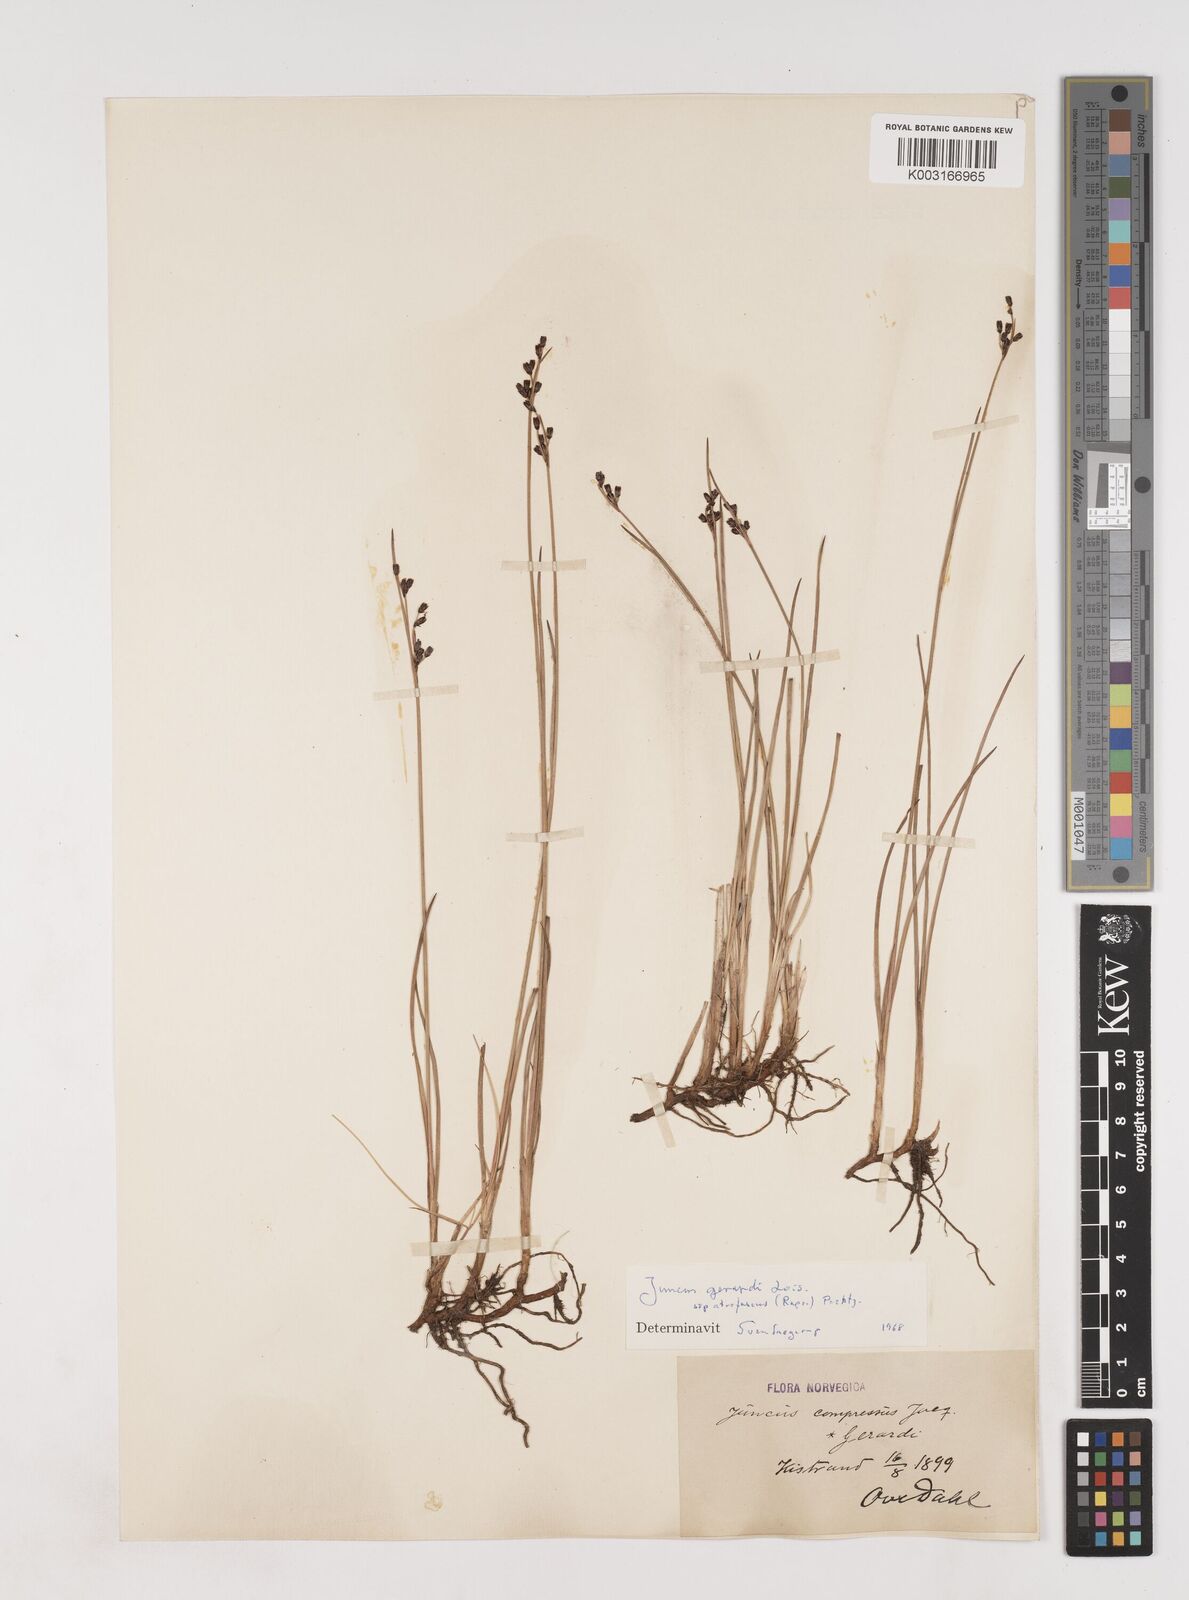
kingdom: Plantae
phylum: Tracheophyta
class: Liliopsida
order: Poales
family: Juncaceae
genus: Juncus
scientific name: Juncus gerardi
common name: Saltmarsh rush
